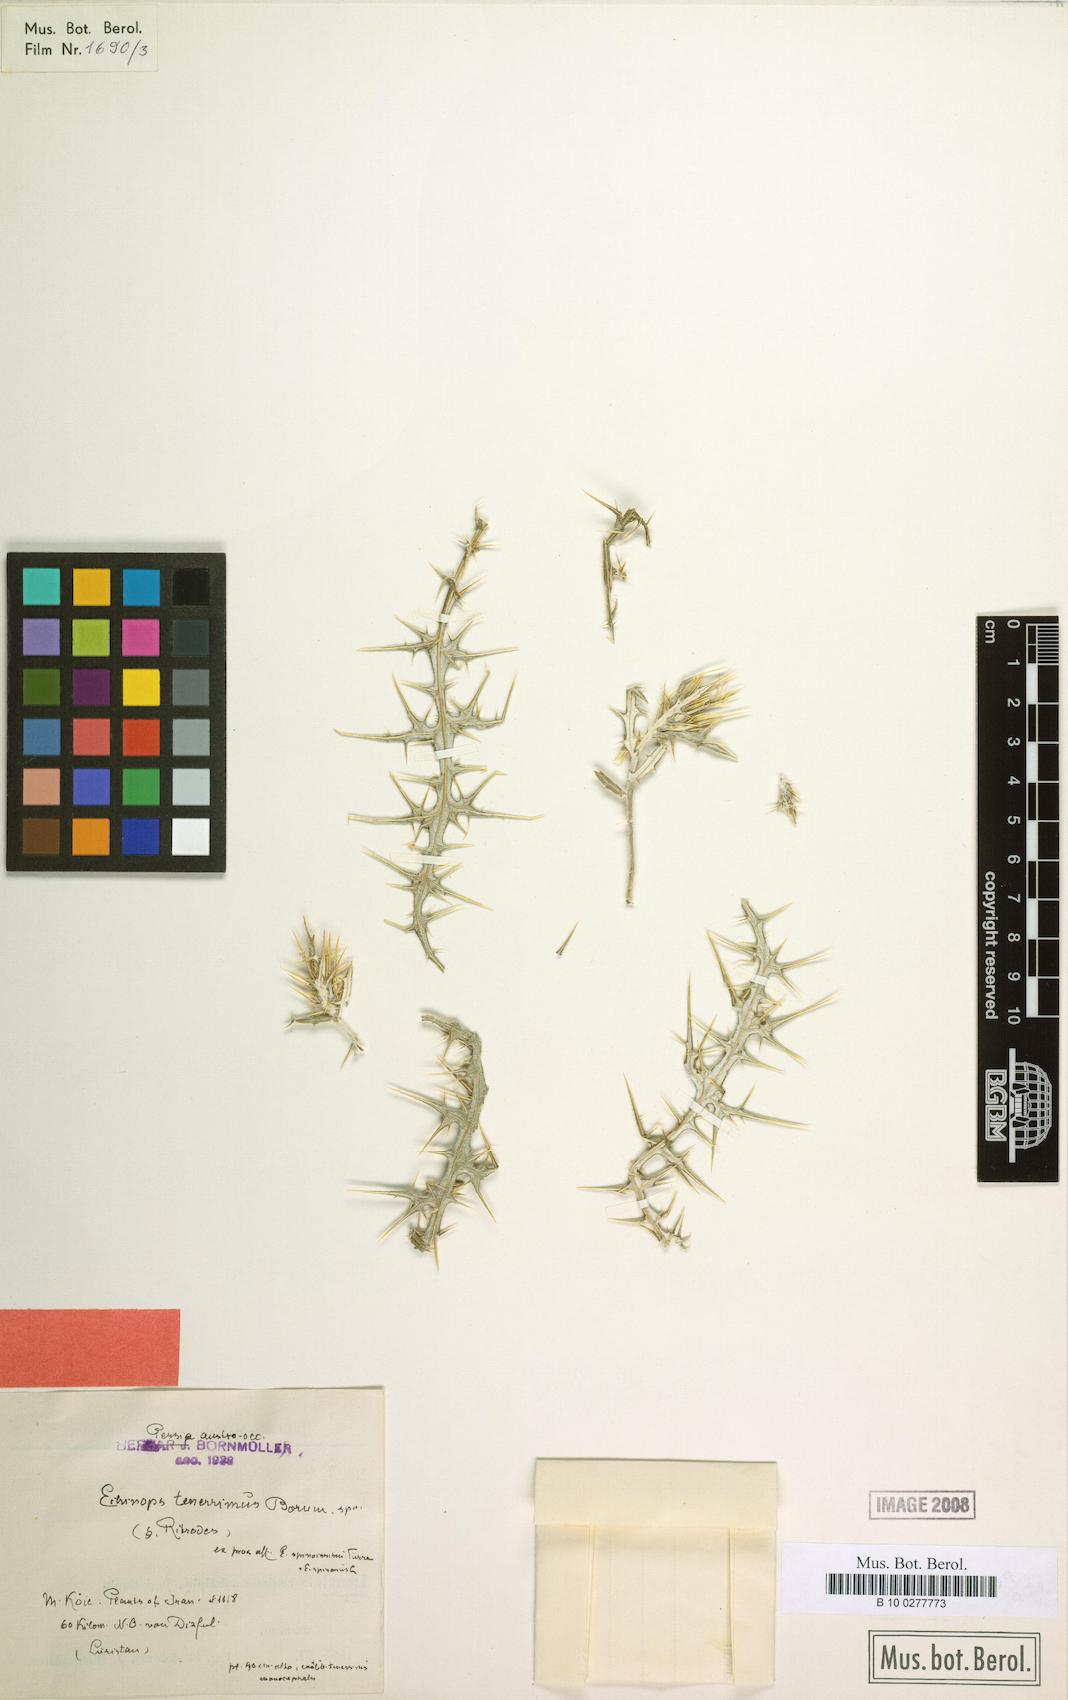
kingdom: Plantae
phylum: Tracheophyta
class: Magnoliopsida
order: Asterales
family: Asteraceae
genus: Echinops
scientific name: Echinops tenuisectus
